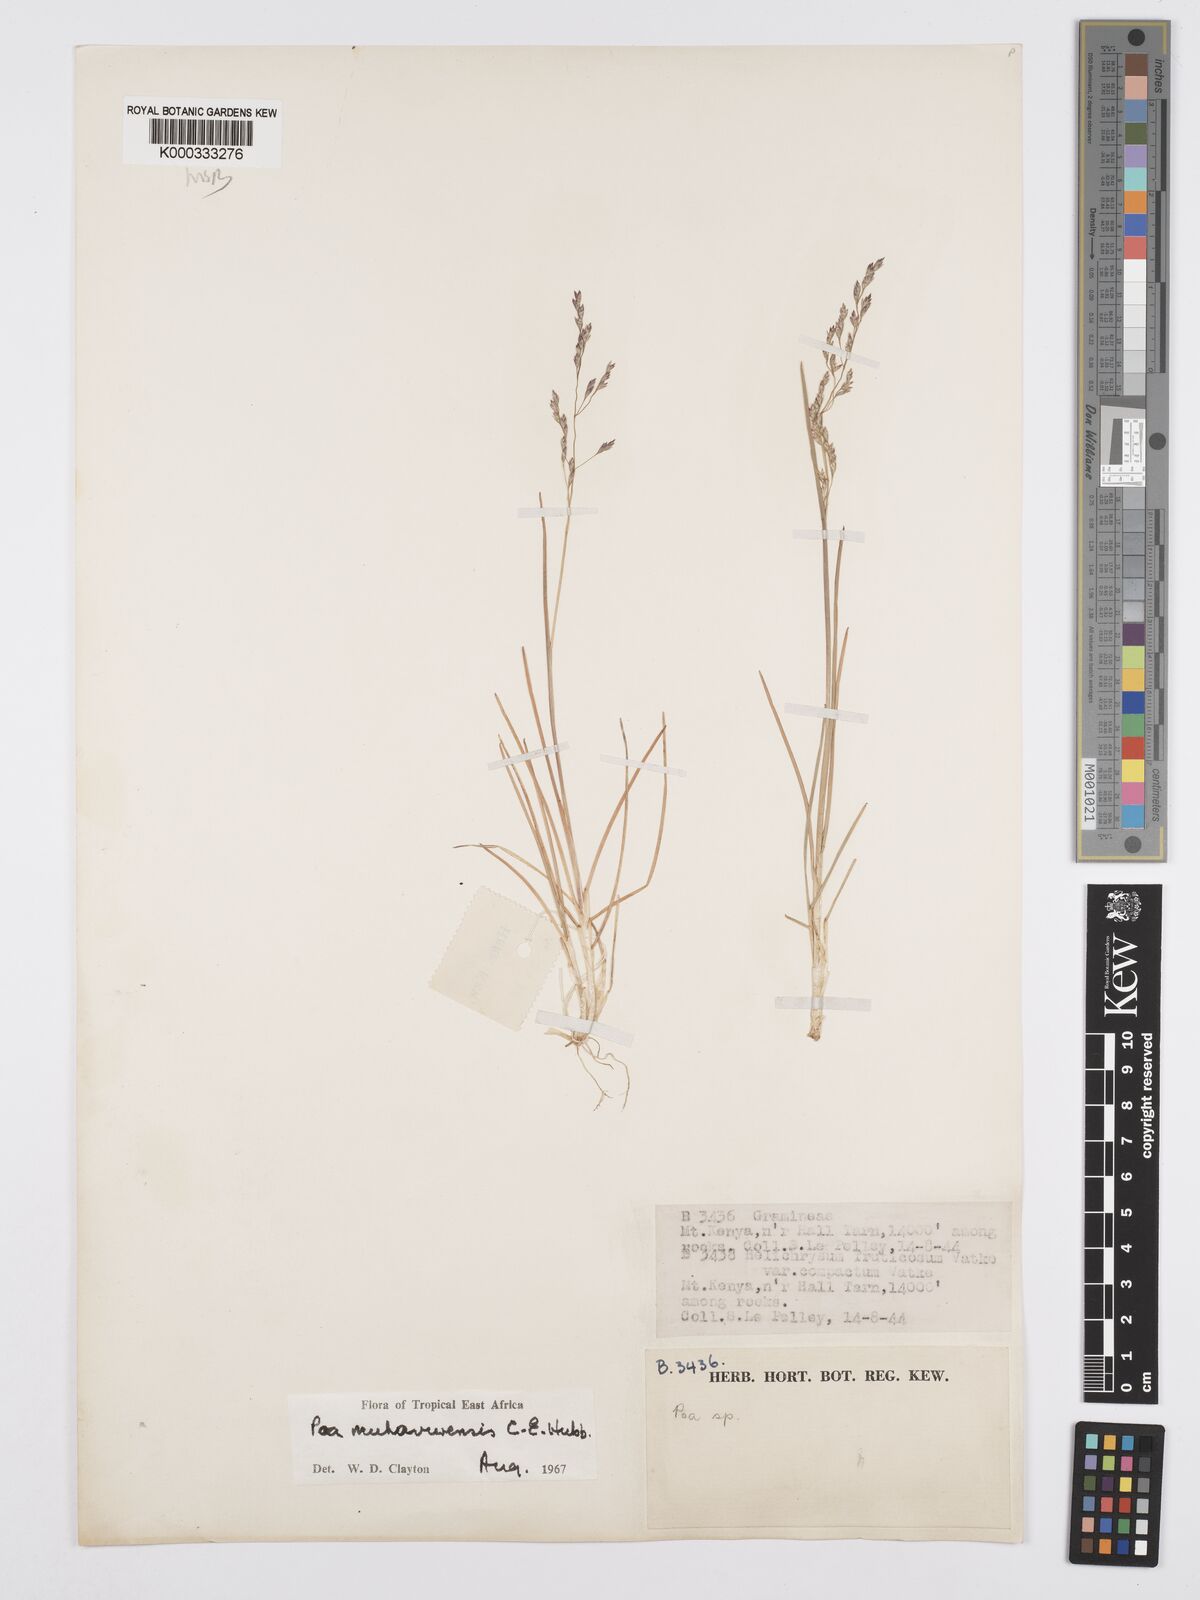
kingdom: Plantae
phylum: Tracheophyta
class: Liliopsida
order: Poales
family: Poaceae
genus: Poa
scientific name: Poa
